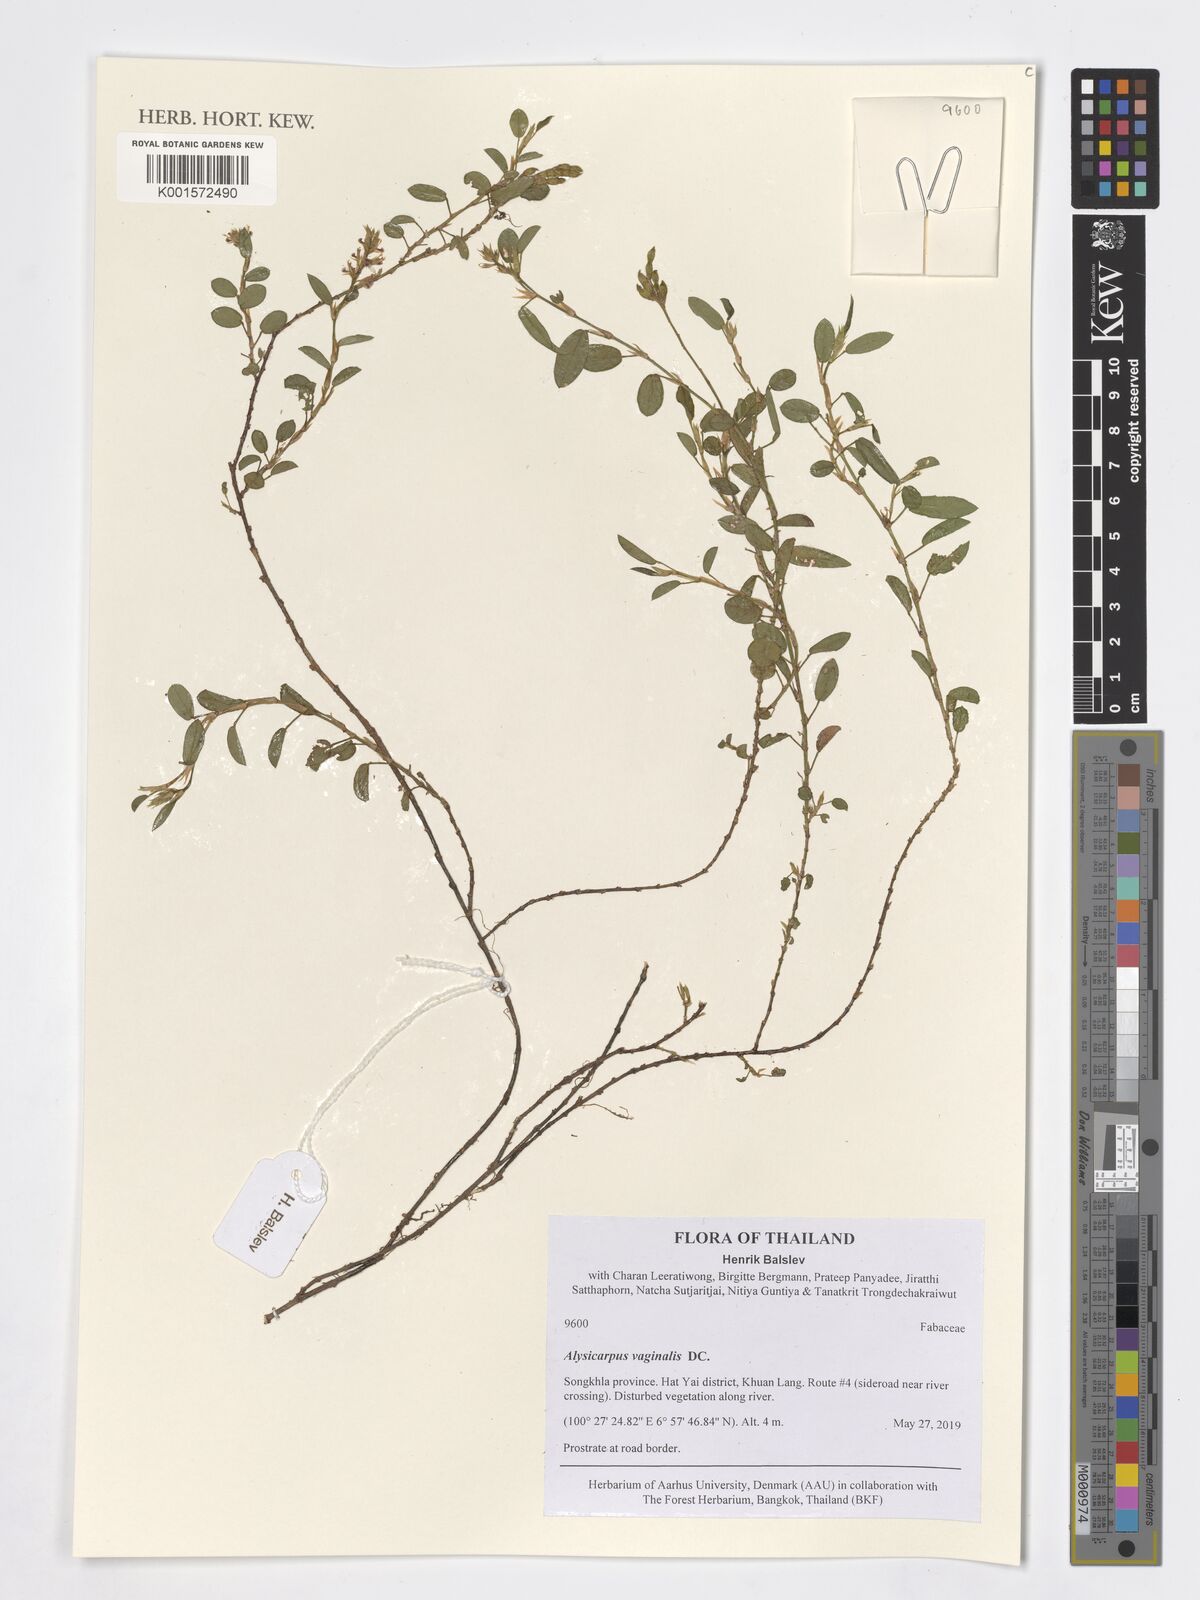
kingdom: Plantae
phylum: Tracheophyta
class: Magnoliopsida
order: Fabales
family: Fabaceae
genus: Alysicarpus
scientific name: Alysicarpus vaginalis
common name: White moneywort
